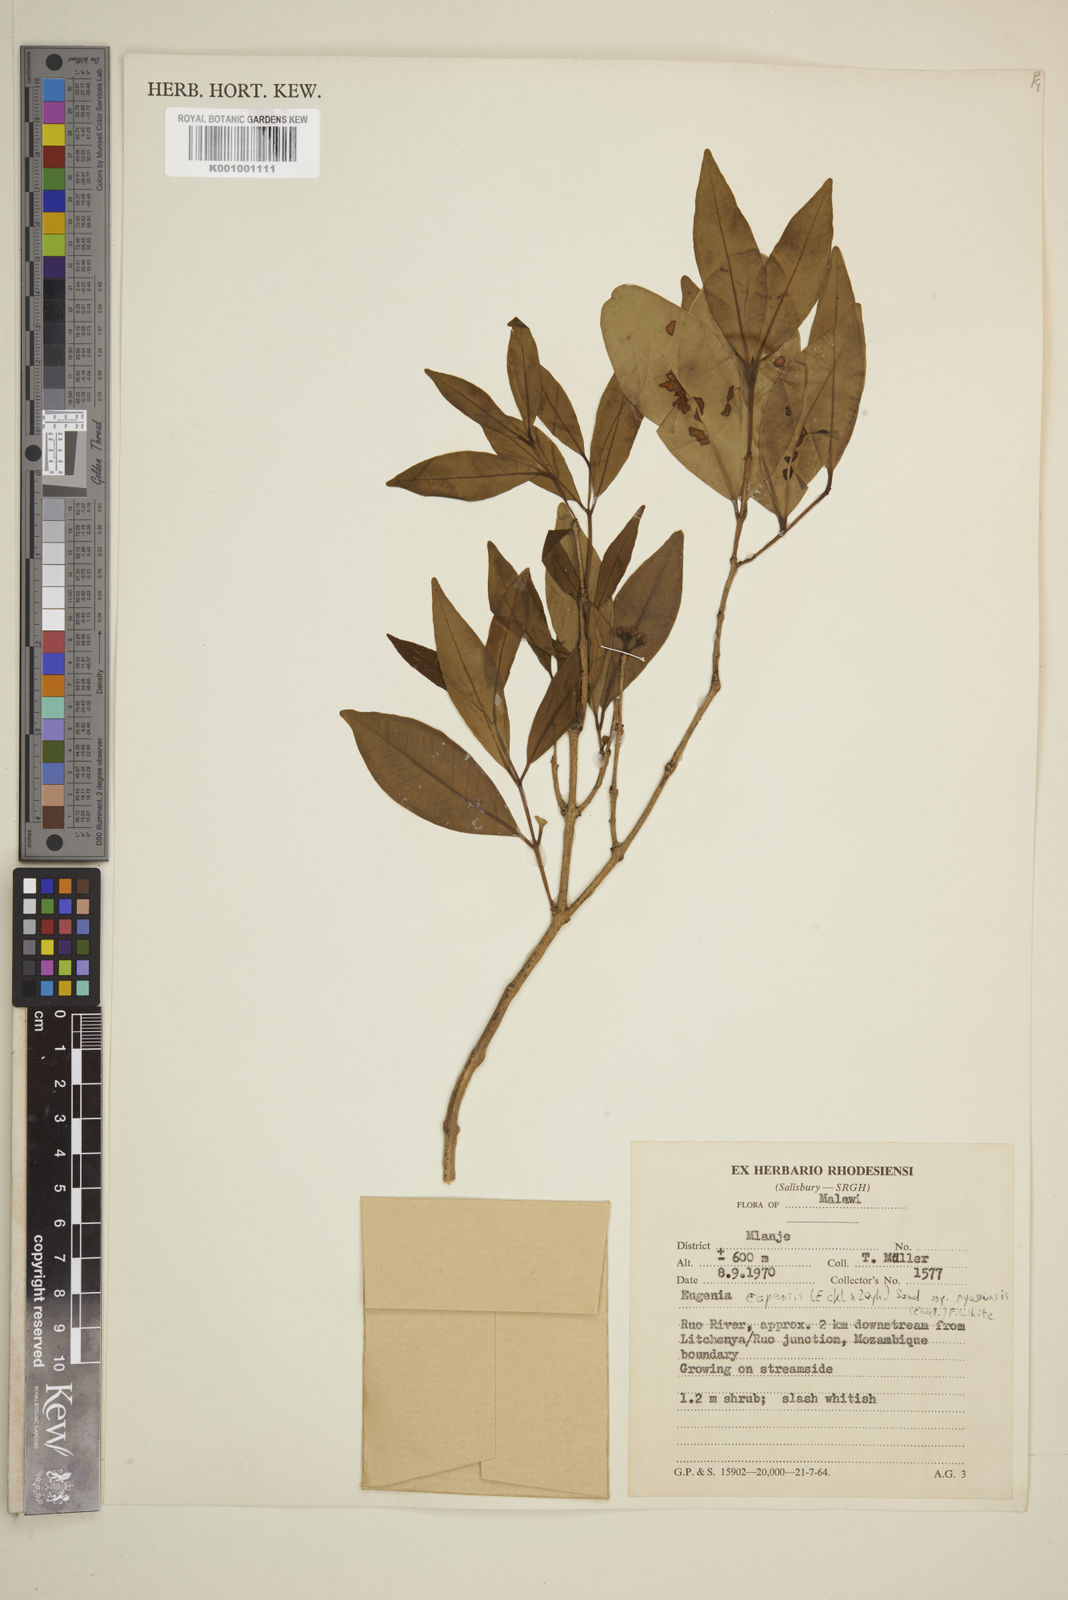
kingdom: Plantae
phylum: Tracheophyta
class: Magnoliopsida
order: Myrtales
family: Myrtaceae
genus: Eugenia
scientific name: Eugenia capensis
